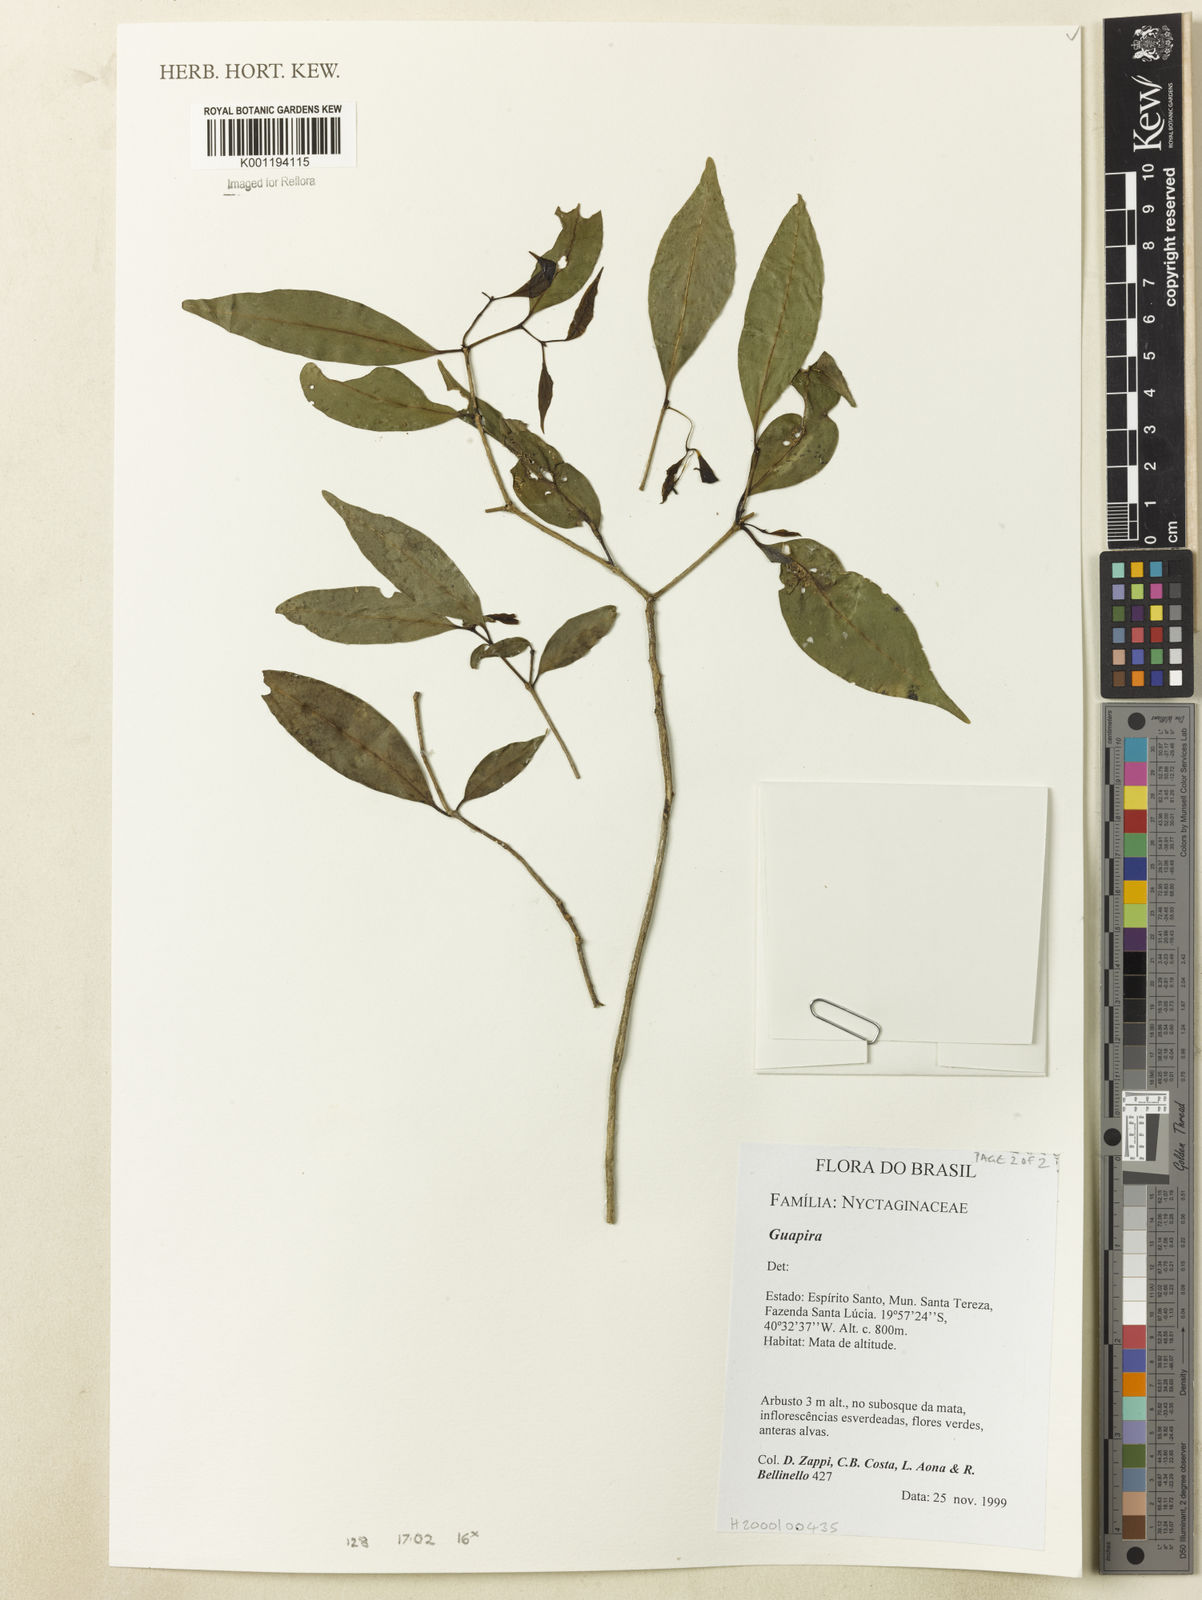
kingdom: Plantae
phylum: Tracheophyta
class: Magnoliopsida
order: Caryophyllales
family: Nyctaginaceae
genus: Guapira
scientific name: Guapira
